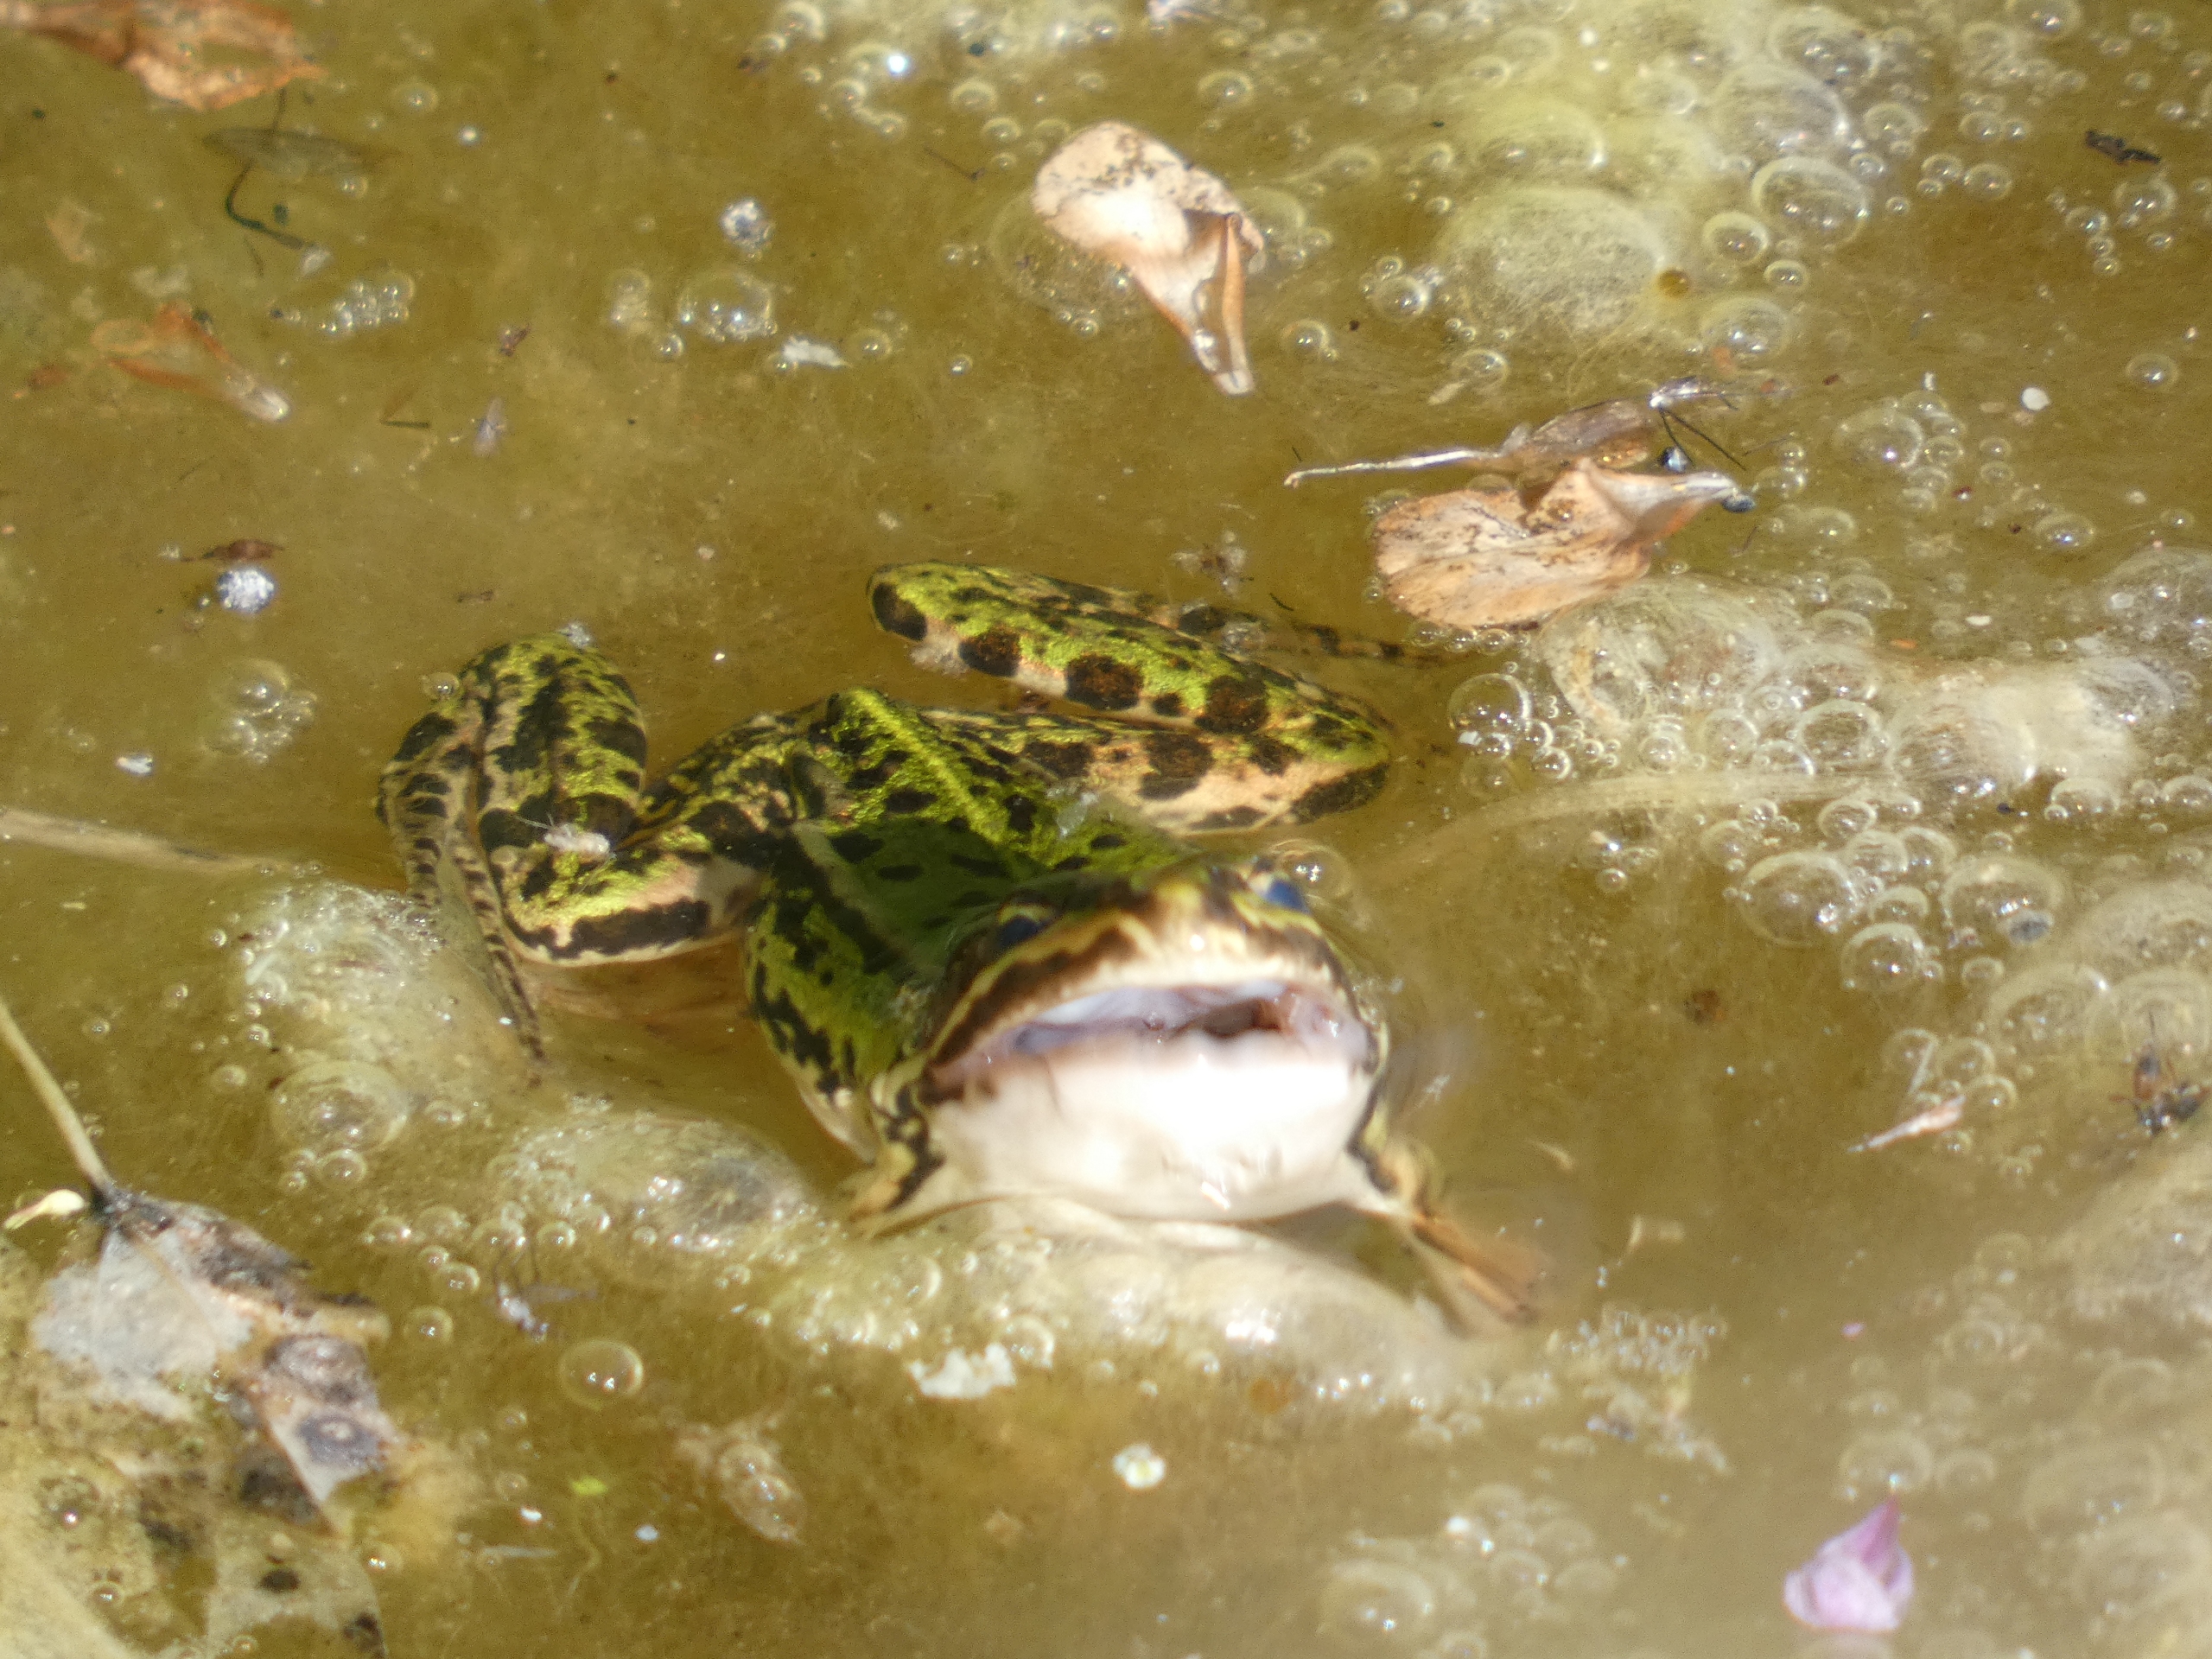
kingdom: Animalia
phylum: Chordata
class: Amphibia
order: Anura
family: Ranidae
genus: Pelophylax
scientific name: Pelophylax lessonae
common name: Grøn frø
